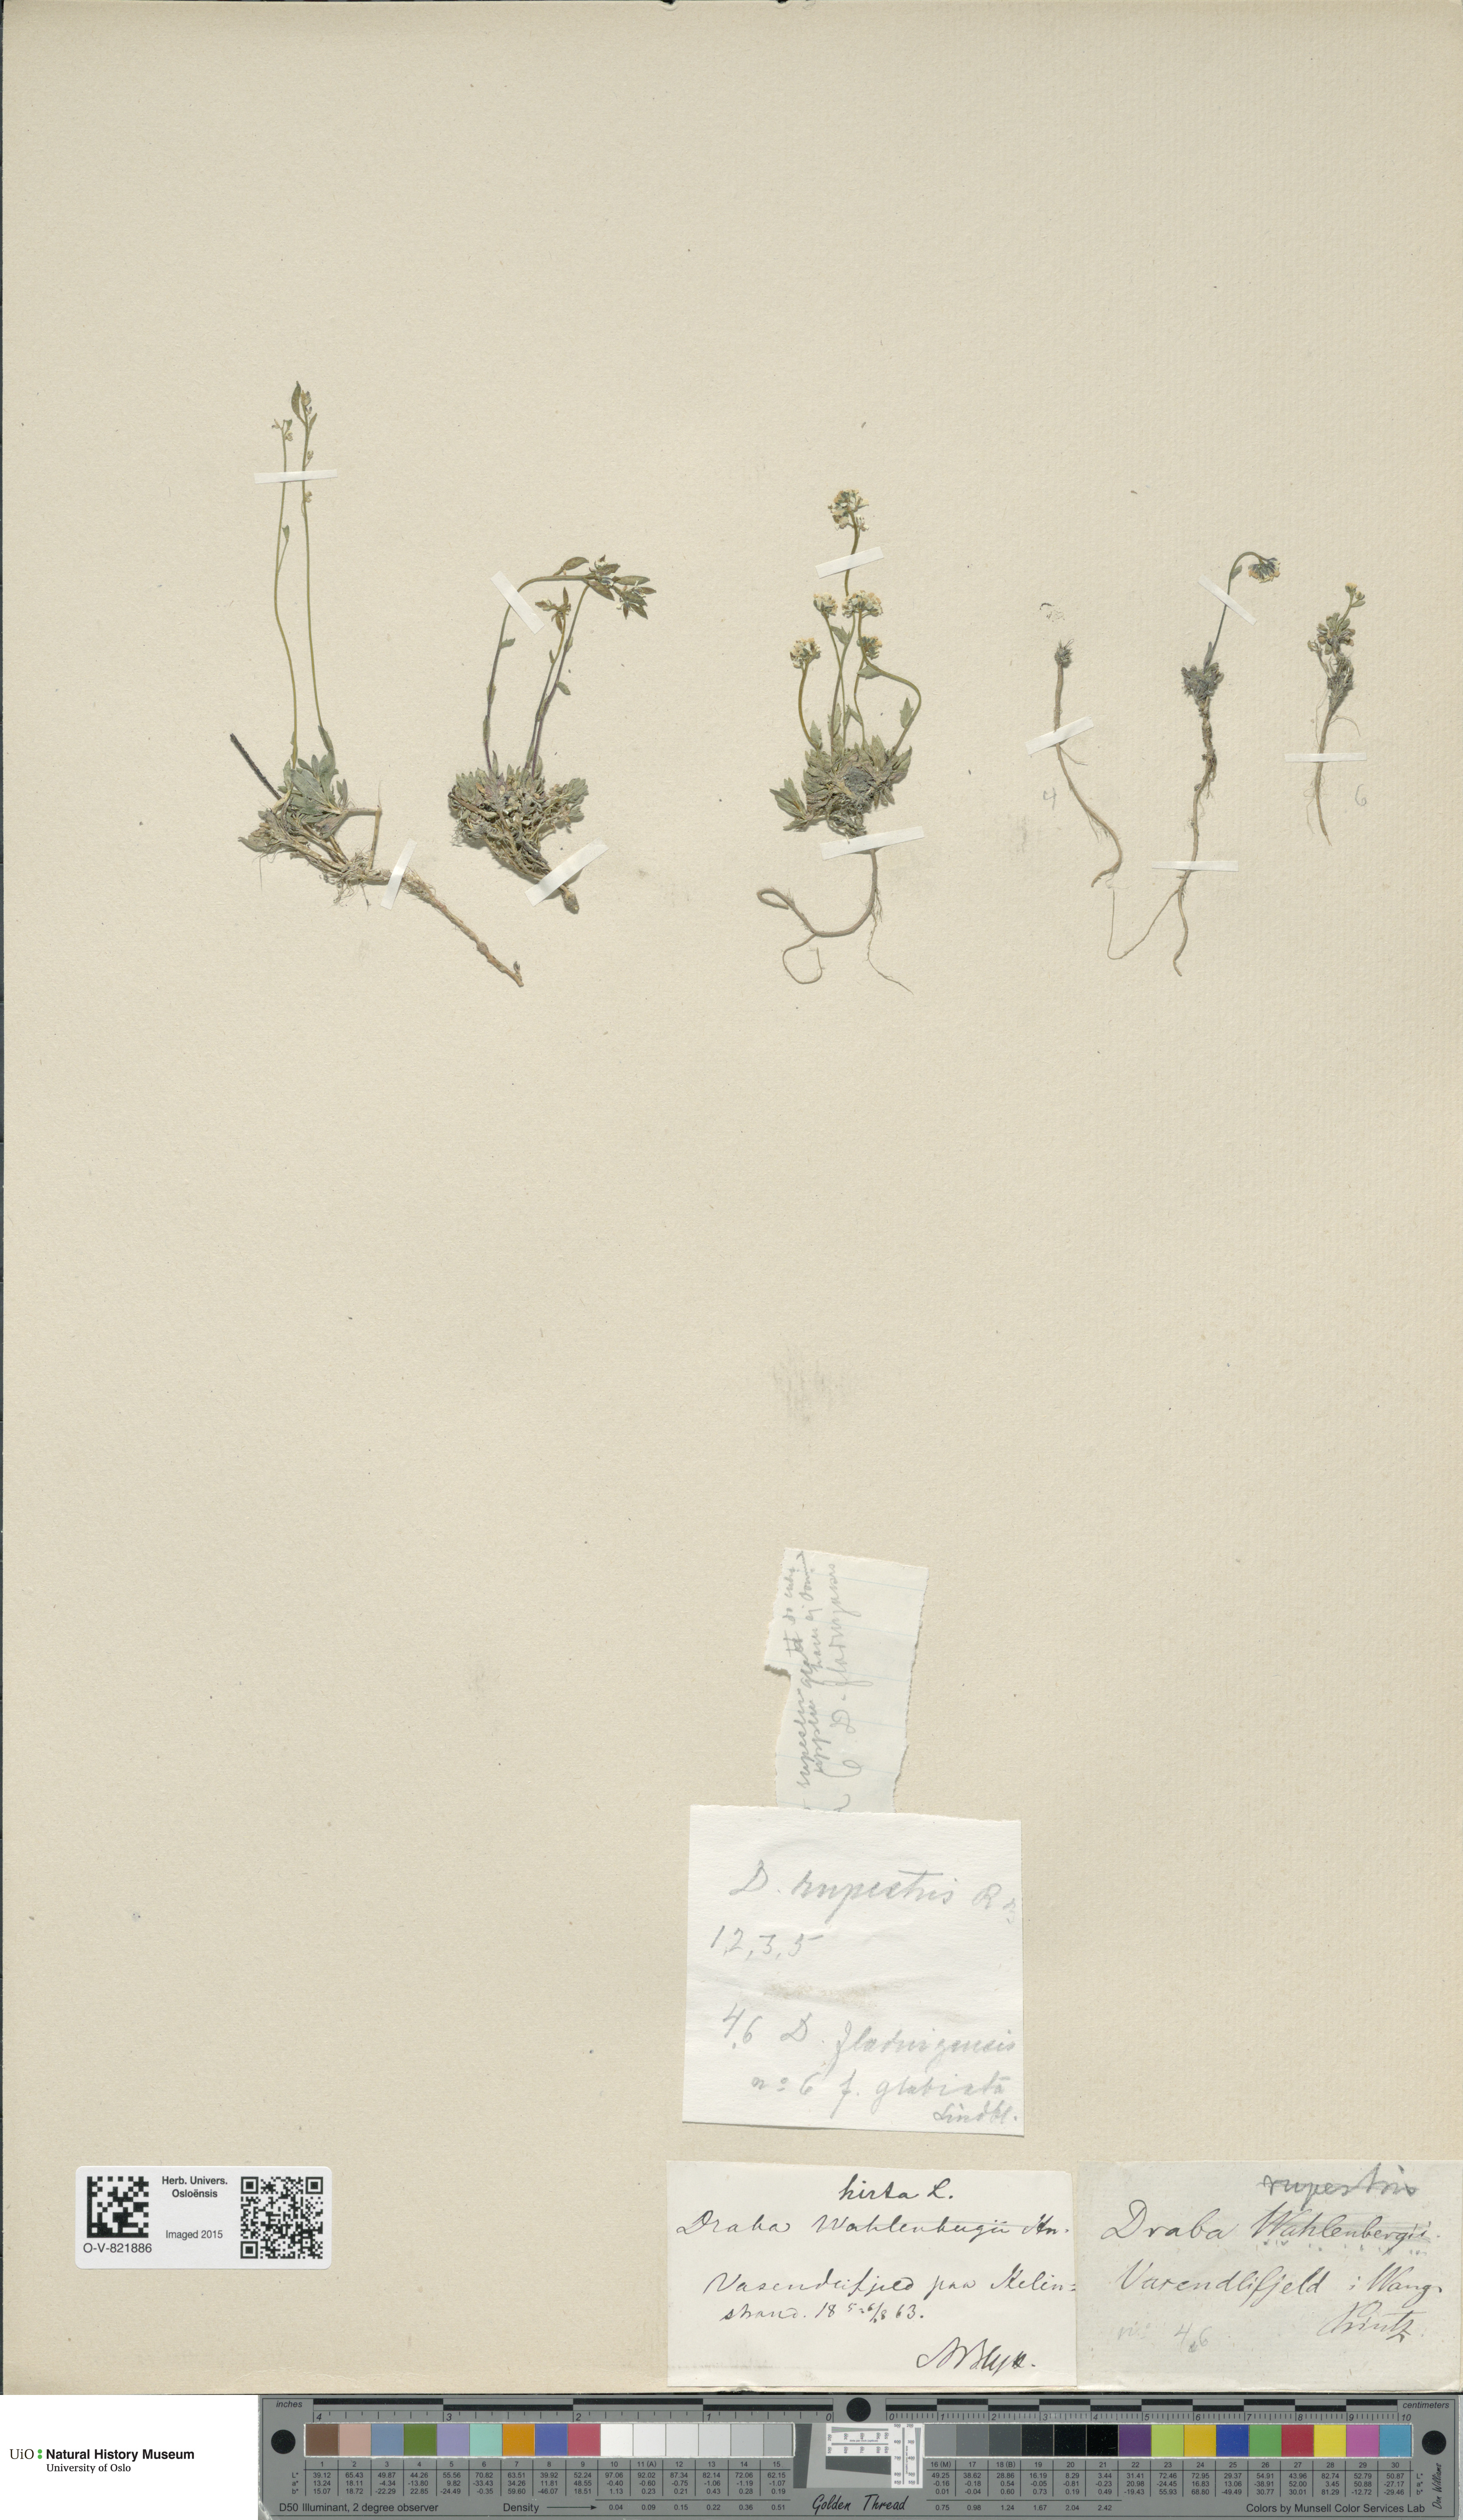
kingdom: Plantae
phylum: Tracheophyta
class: Magnoliopsida
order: Brassicales
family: Brassicaceae
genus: Draba
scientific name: Draba norvegica
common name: Rock whitlowgrass
